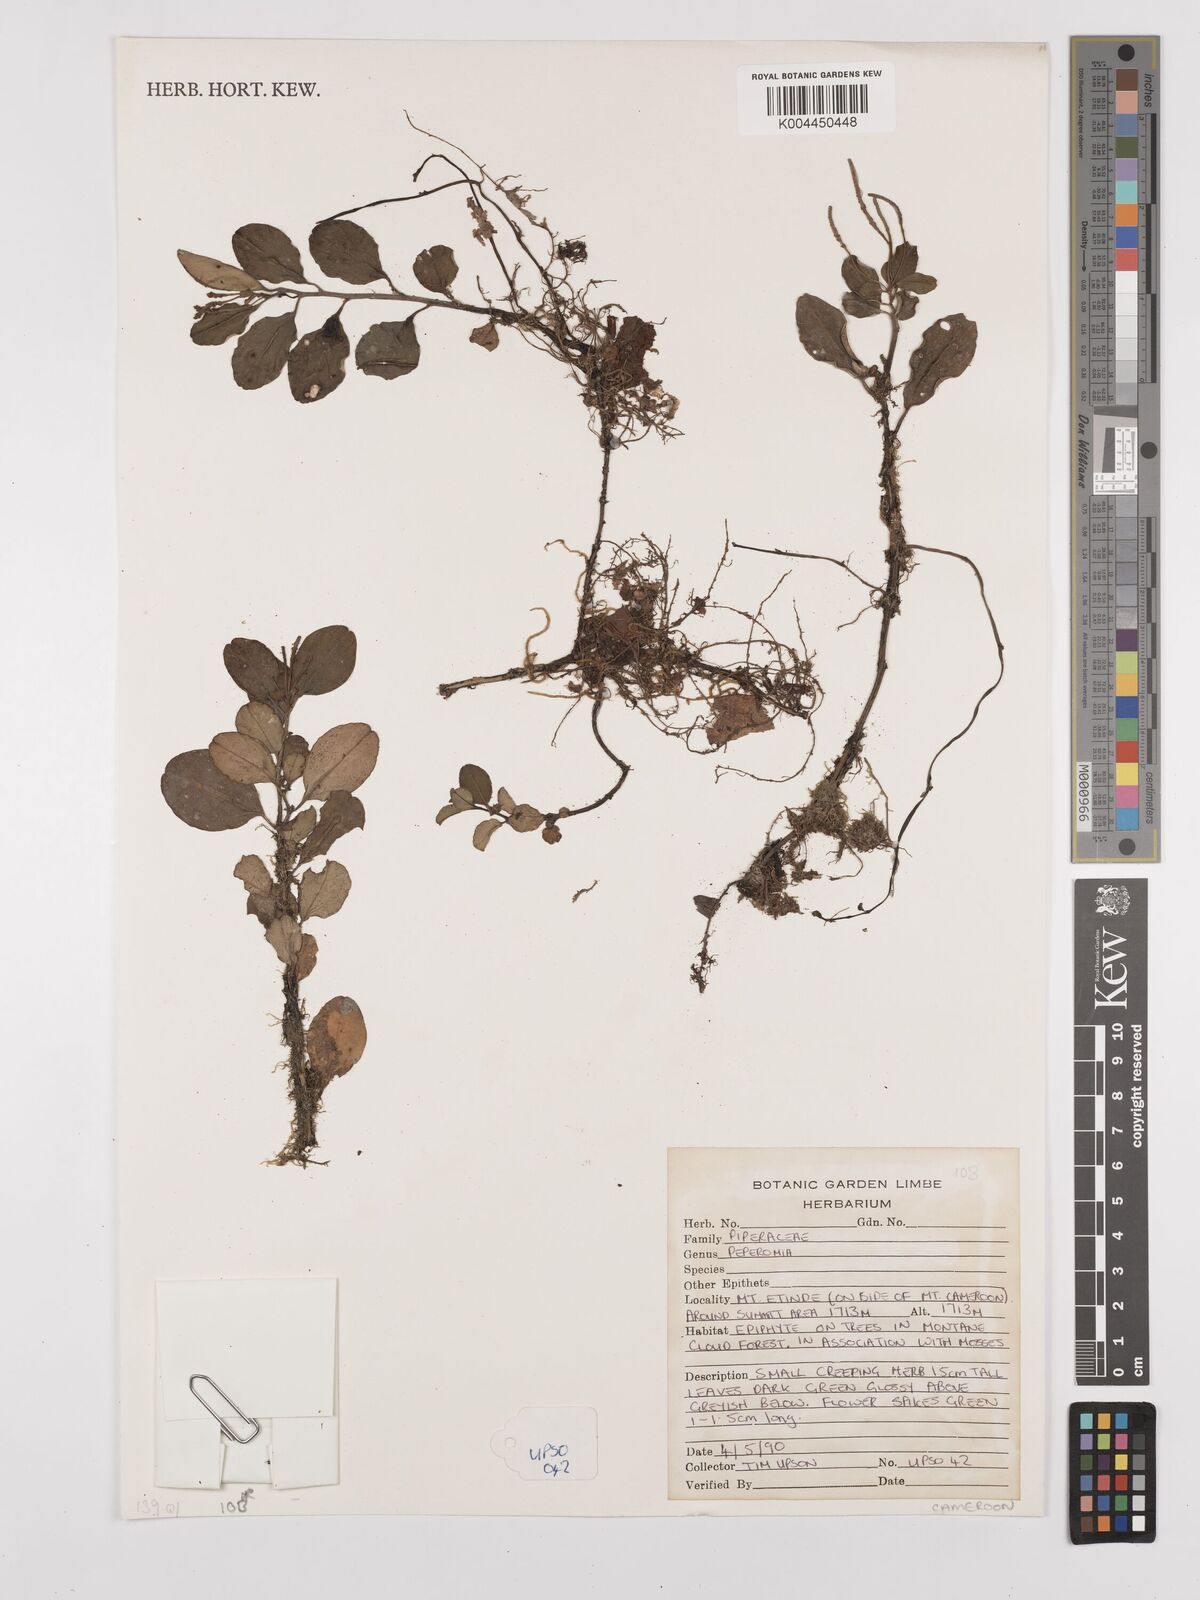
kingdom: Plantae
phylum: Tracheophyta
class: Magnoliopsida
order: Piperales
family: Piperaceae
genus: Peperomia
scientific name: Peperomia
